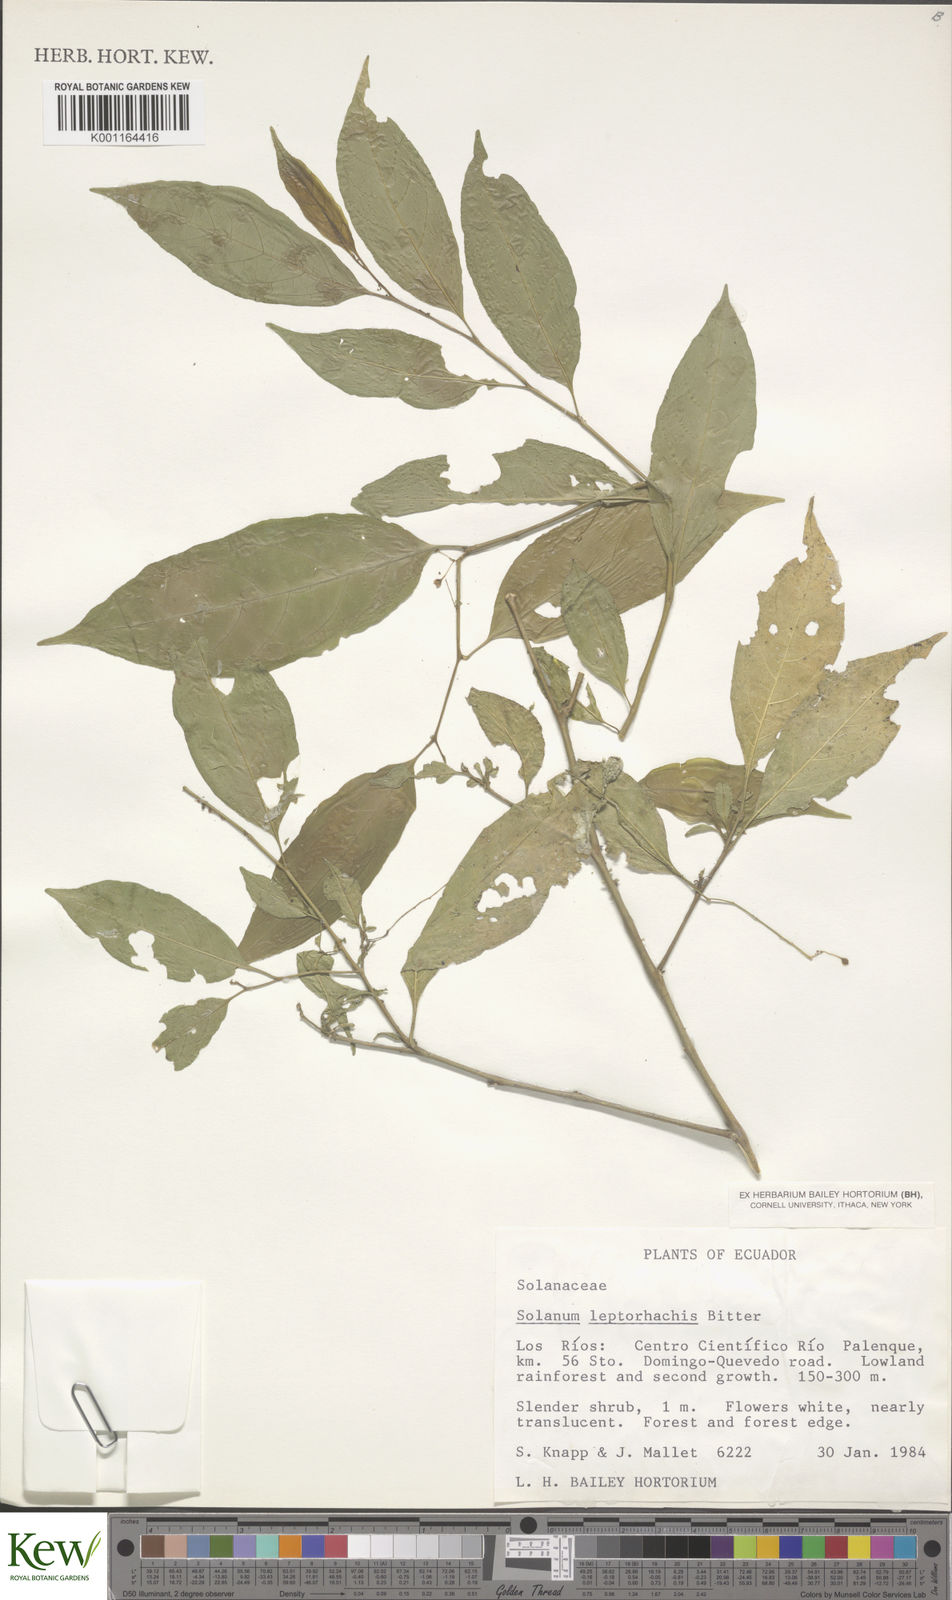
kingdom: Plantae
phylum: Tracheophyta
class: Magnoliopsida
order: Solanales
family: Solanaceae
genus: Solanum
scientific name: Solanum leptorhachis
